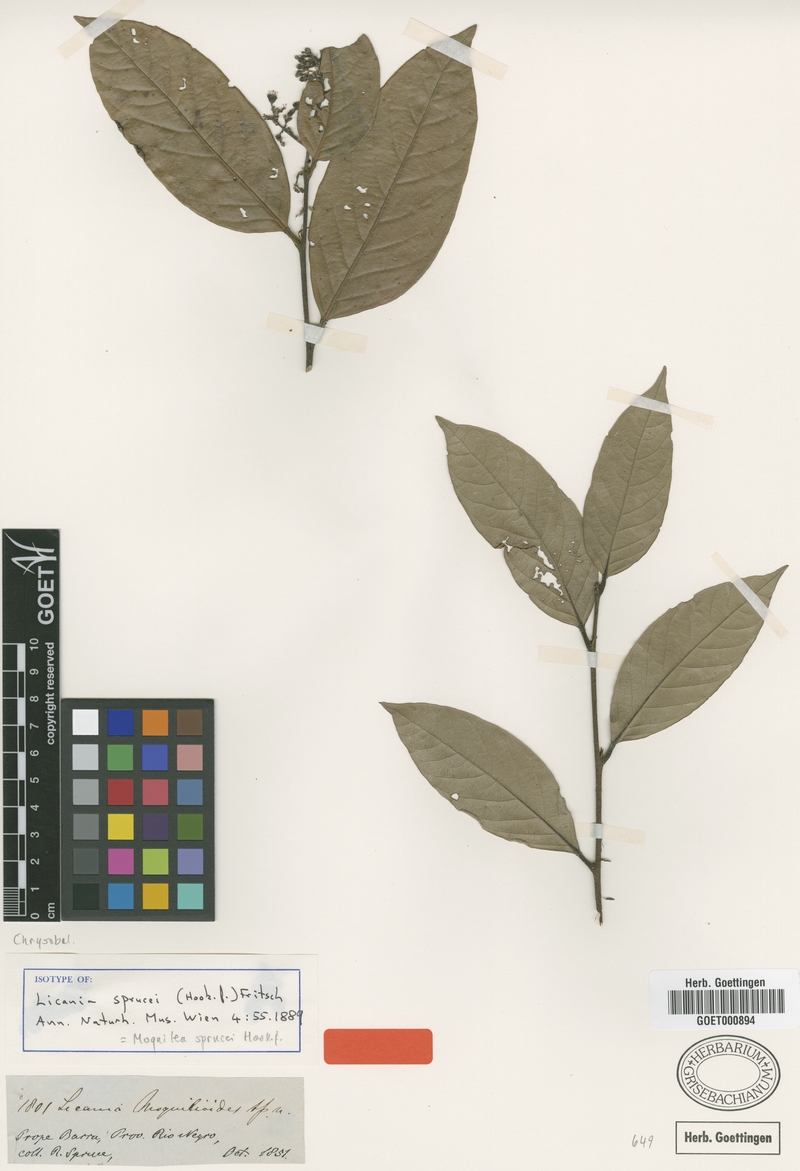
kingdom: Plantae
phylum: Tracheophyta
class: Magnoliopsida
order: Malpighiales
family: Chrysobalanaceae
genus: Leptobalanus
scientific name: Leptobalanus sprucei
